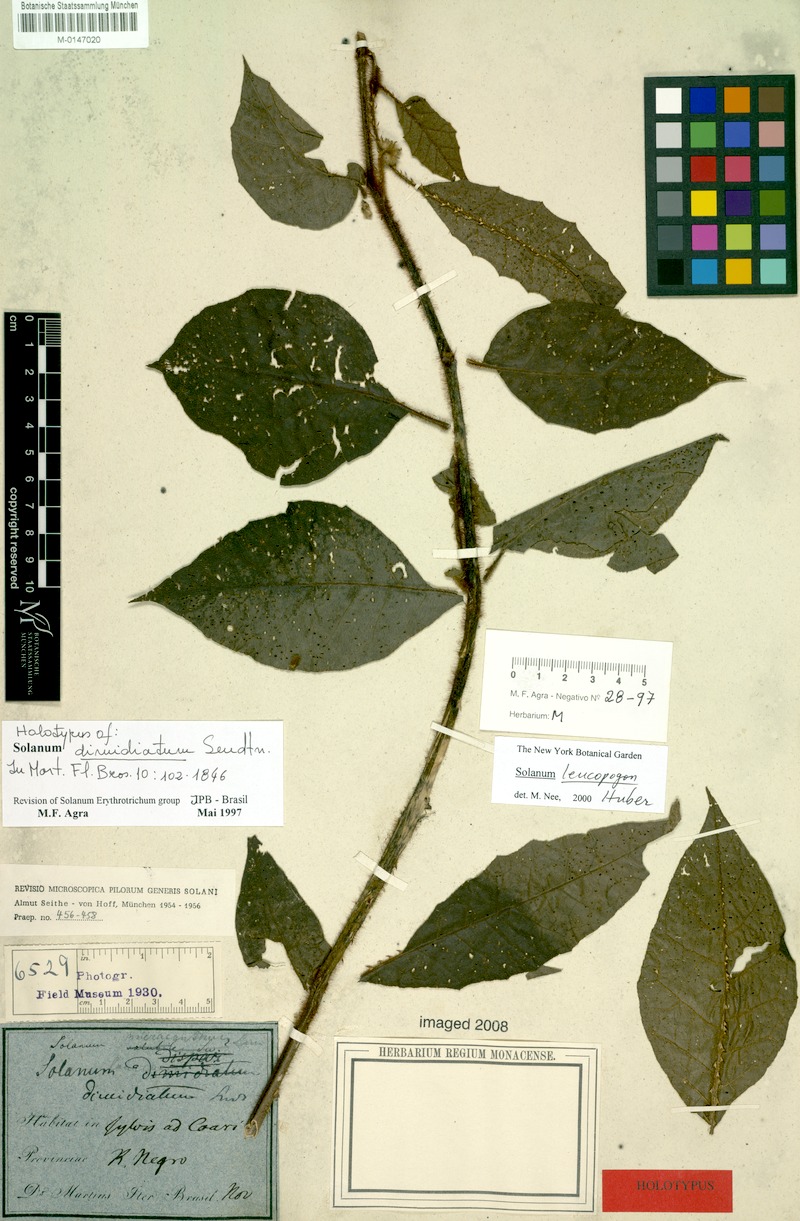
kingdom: Plantae
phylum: Tracheophyta
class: Magnoliopsida
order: Solanales
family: Solanaceae
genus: Solanum
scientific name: Solanum leucopogon
